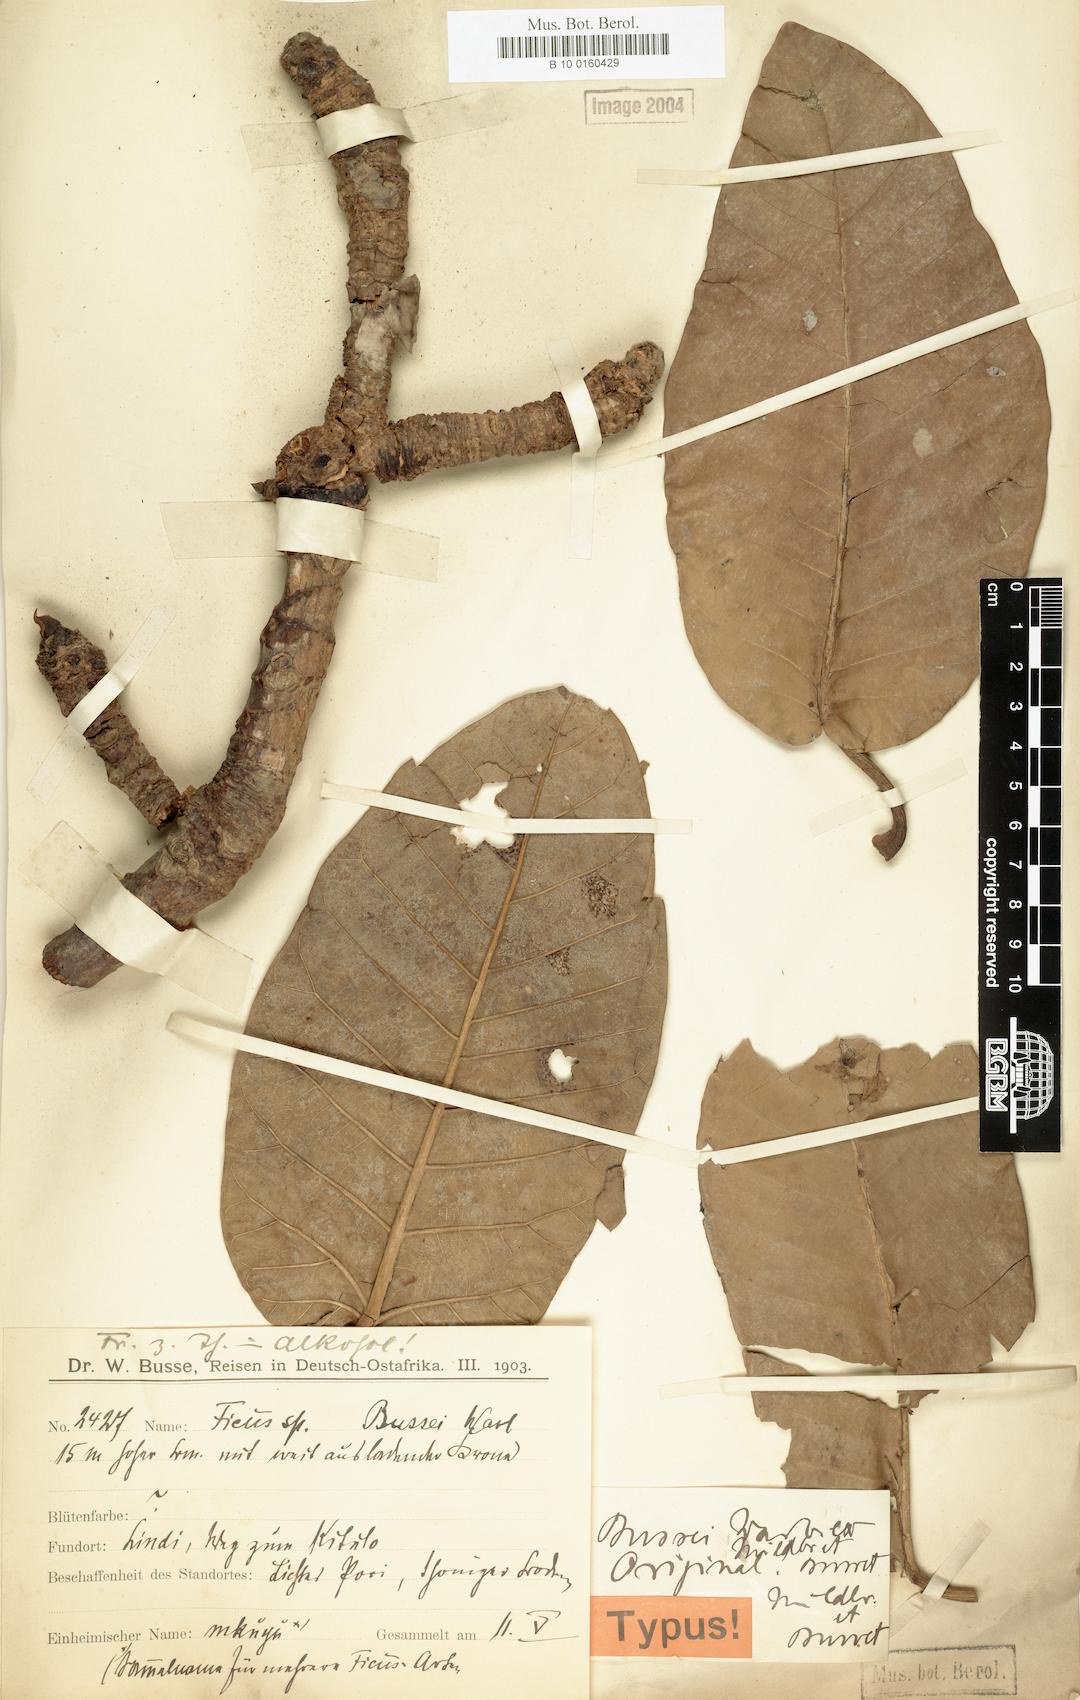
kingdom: Plantae
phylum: Tracheophyta
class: Magnoliopsida
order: Rosales
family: Moraceae
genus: Ficus
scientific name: Ficus bussei
